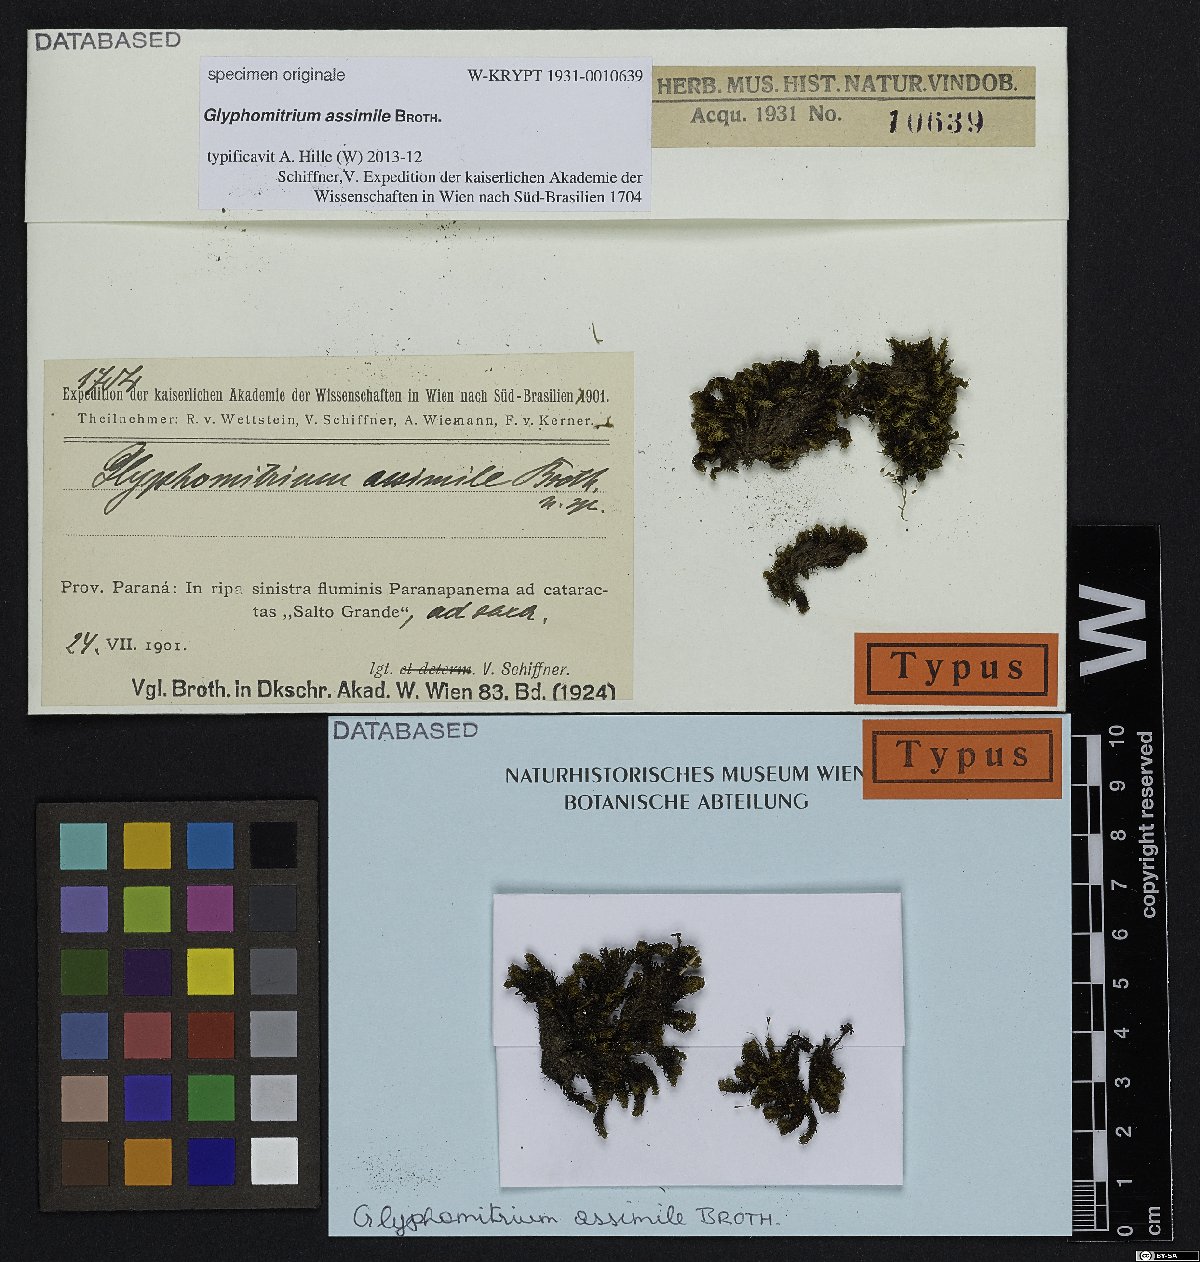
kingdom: Plantae
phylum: Bryophyta
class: Bryopsida
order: Grimmiales
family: Ptychomitriaceae
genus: Glyphomitrium
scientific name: Glyphomitrium
